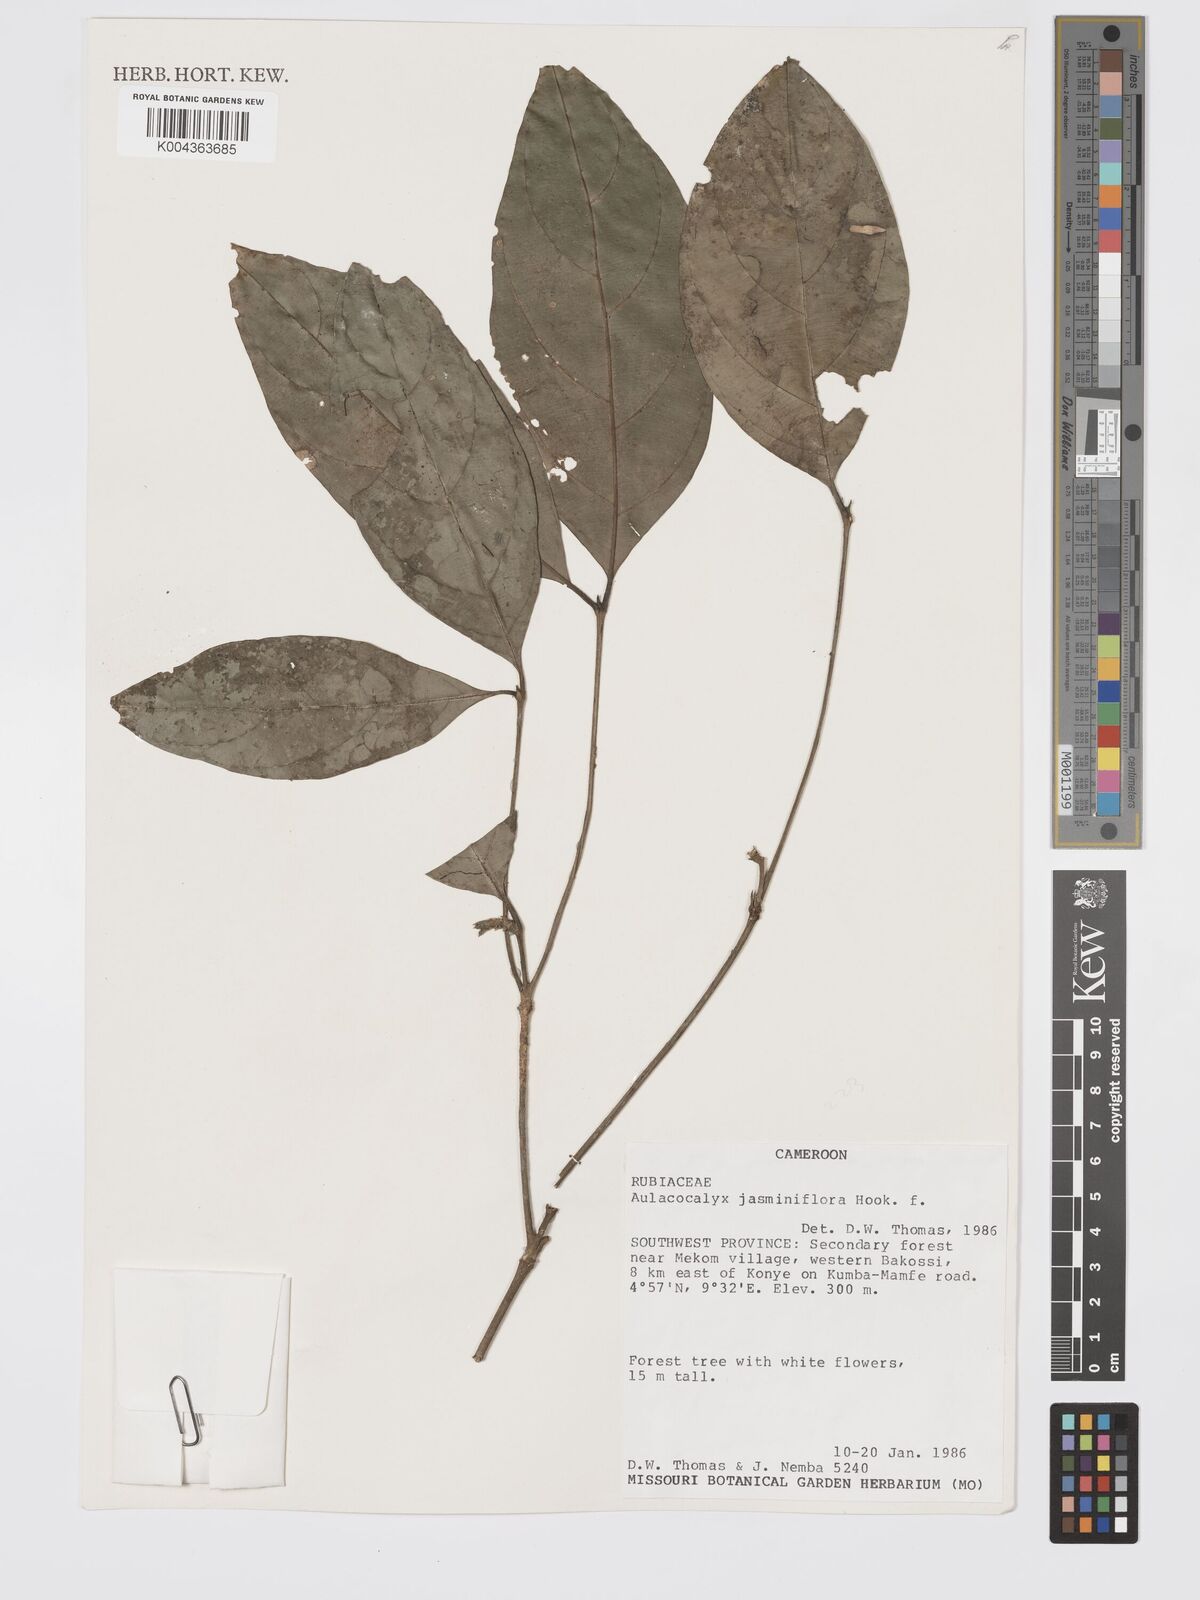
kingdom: Plantae
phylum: Tracheophyta
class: Magnoliopsida
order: Gentianales
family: Rubiaceae
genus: Aulacocalyx
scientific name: Aulacocalyx jasminiflora
